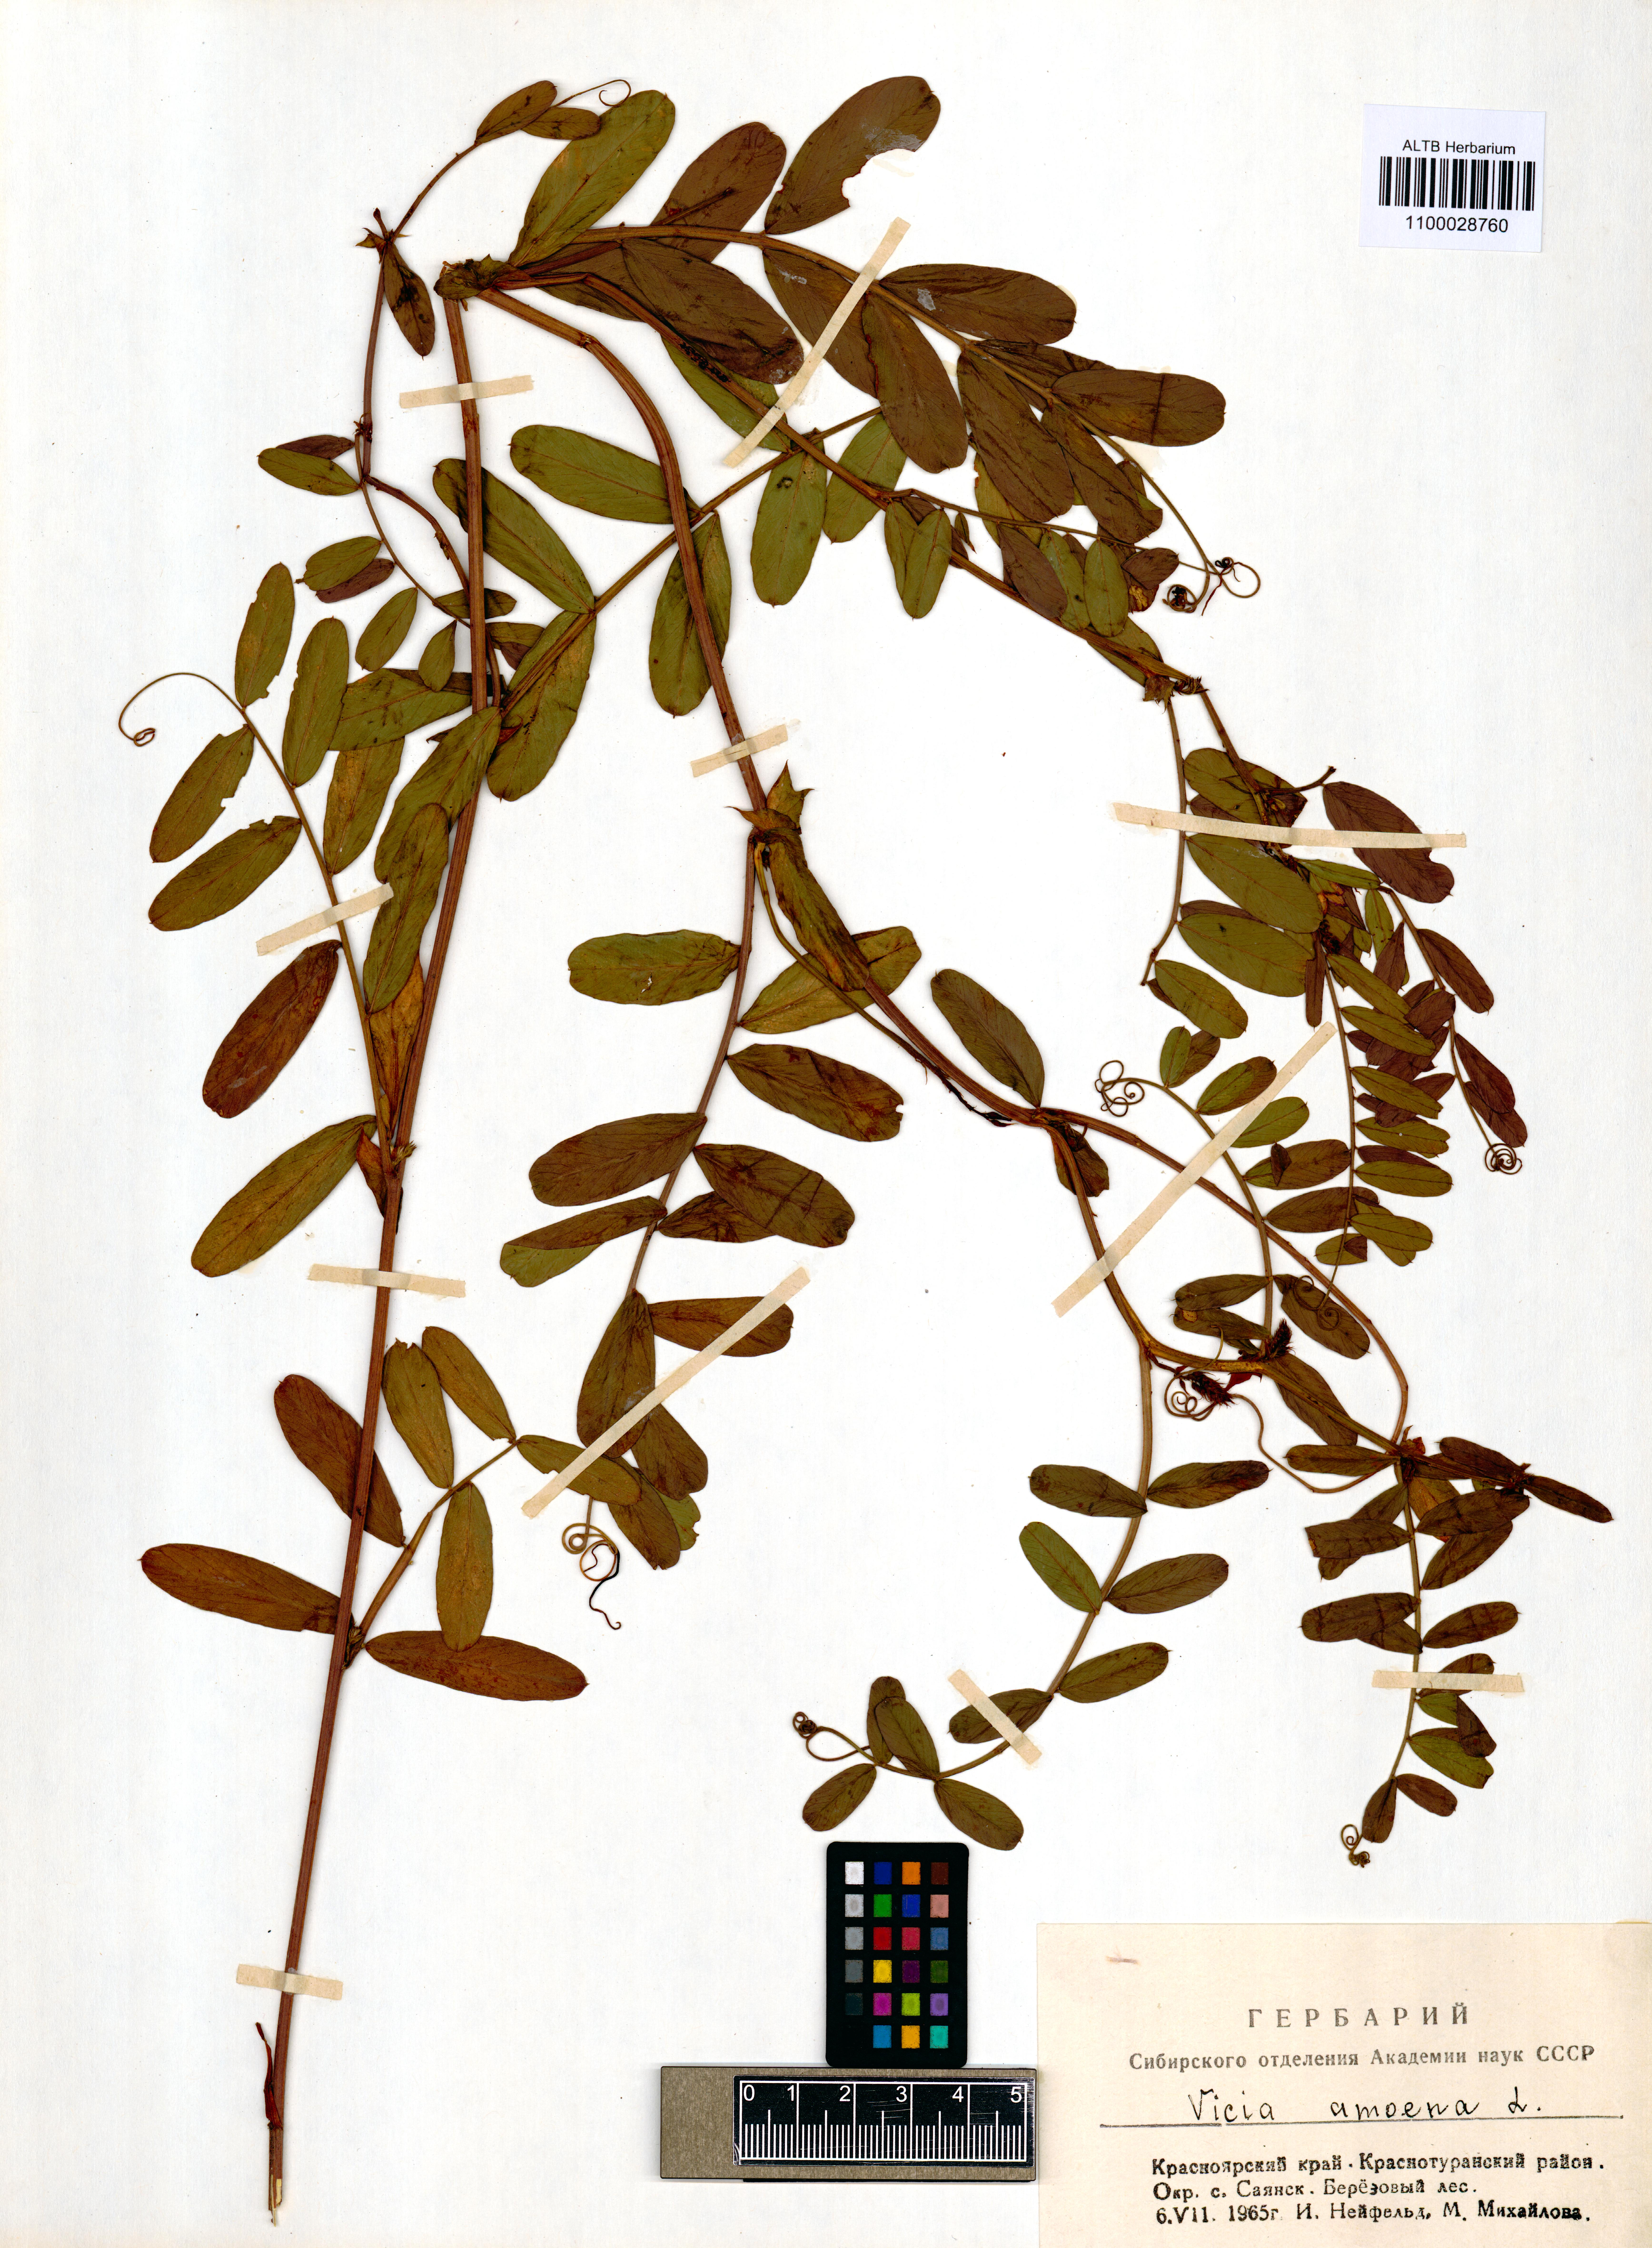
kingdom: Plantae
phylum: Tracheophyta
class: Magnoliopsida
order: Fabales
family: Fabaceae
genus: Vicia
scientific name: Vicia amoena
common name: Cheder ebs
